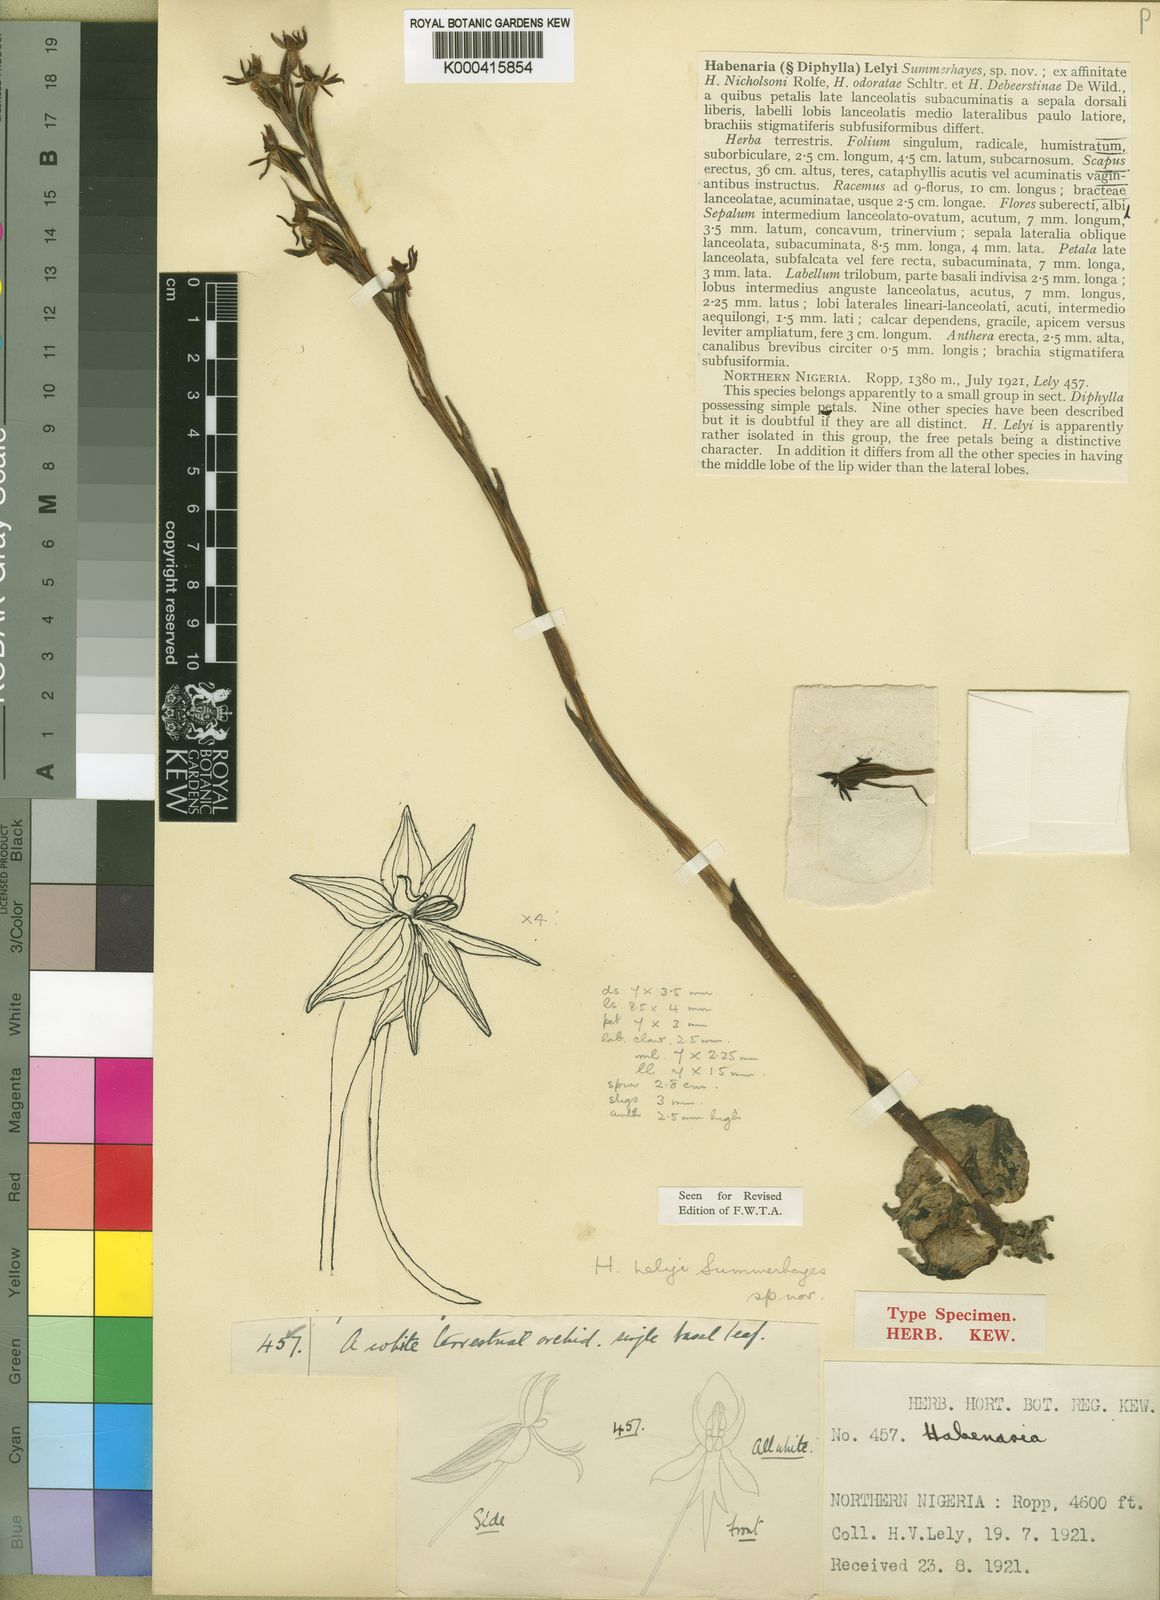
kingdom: Plantae
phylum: Tracheophyta
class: Liliopsida
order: Asparagales
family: Orchidaceae
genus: Habenaria
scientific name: Habenaria lelyi
